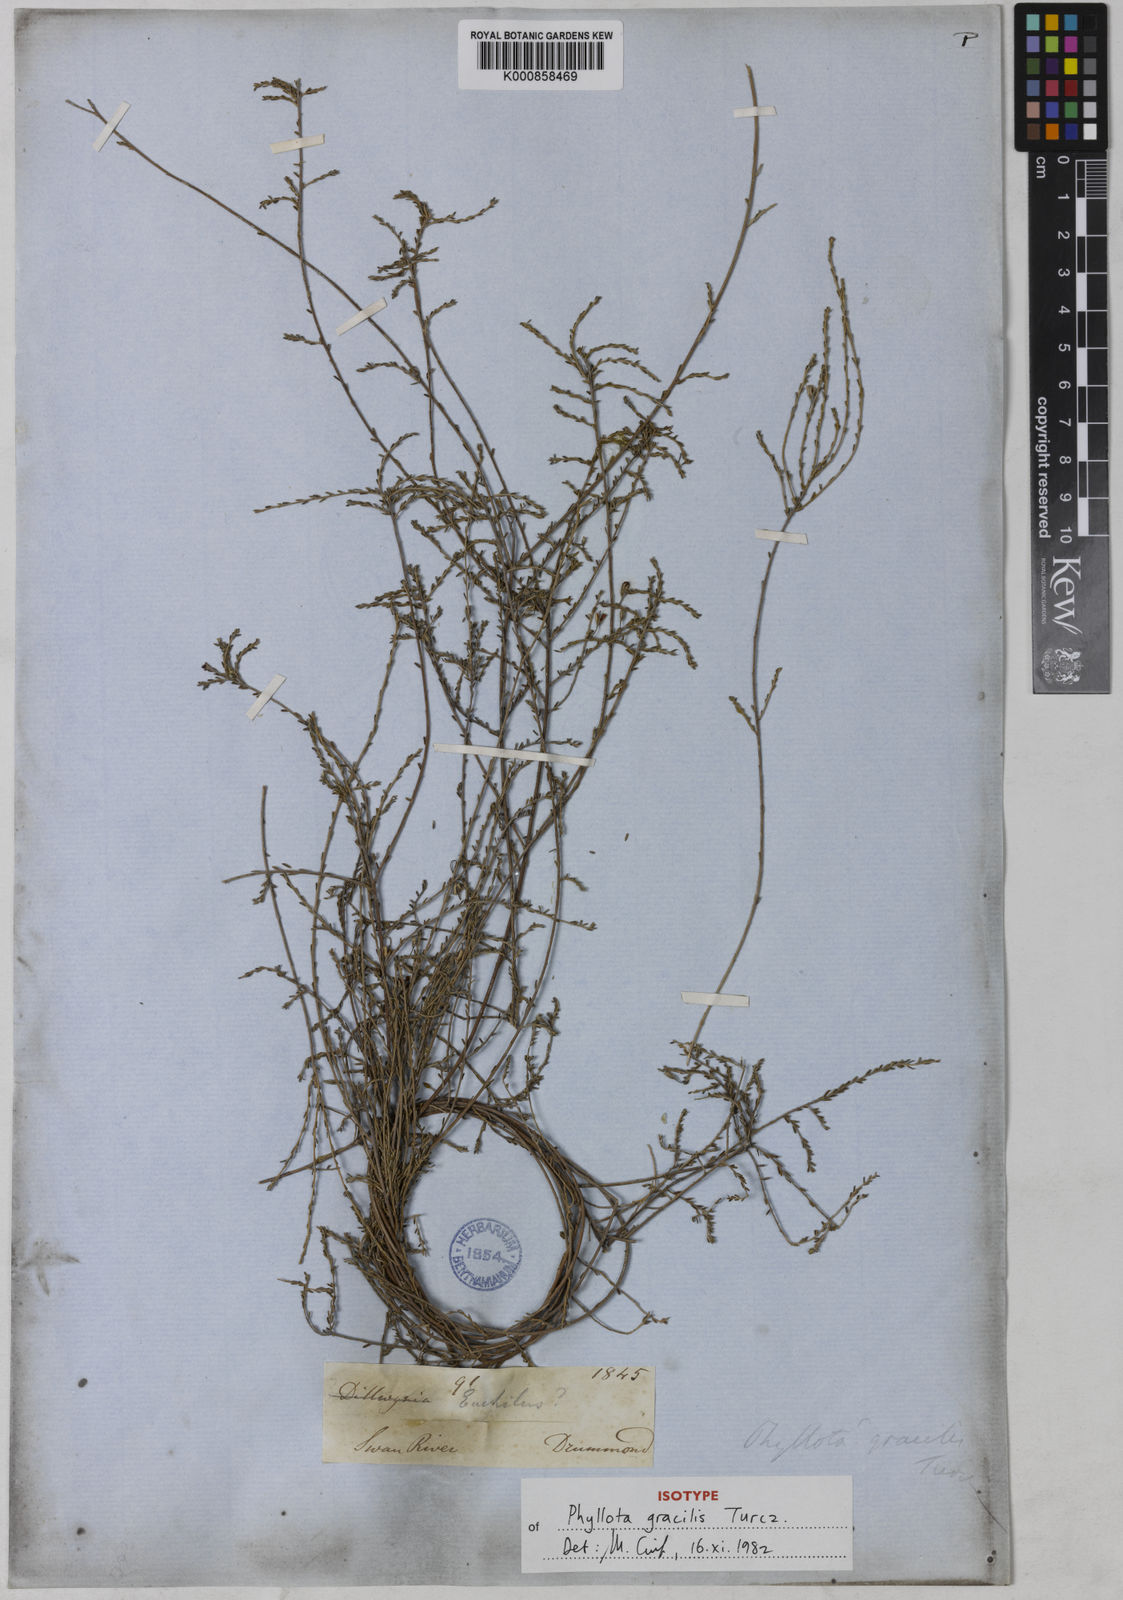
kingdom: Plantae
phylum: Tracheophyta
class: Magnoliopsida
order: Fabales
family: Fabaceae
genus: Phyllota
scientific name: Phyllota gracilis
